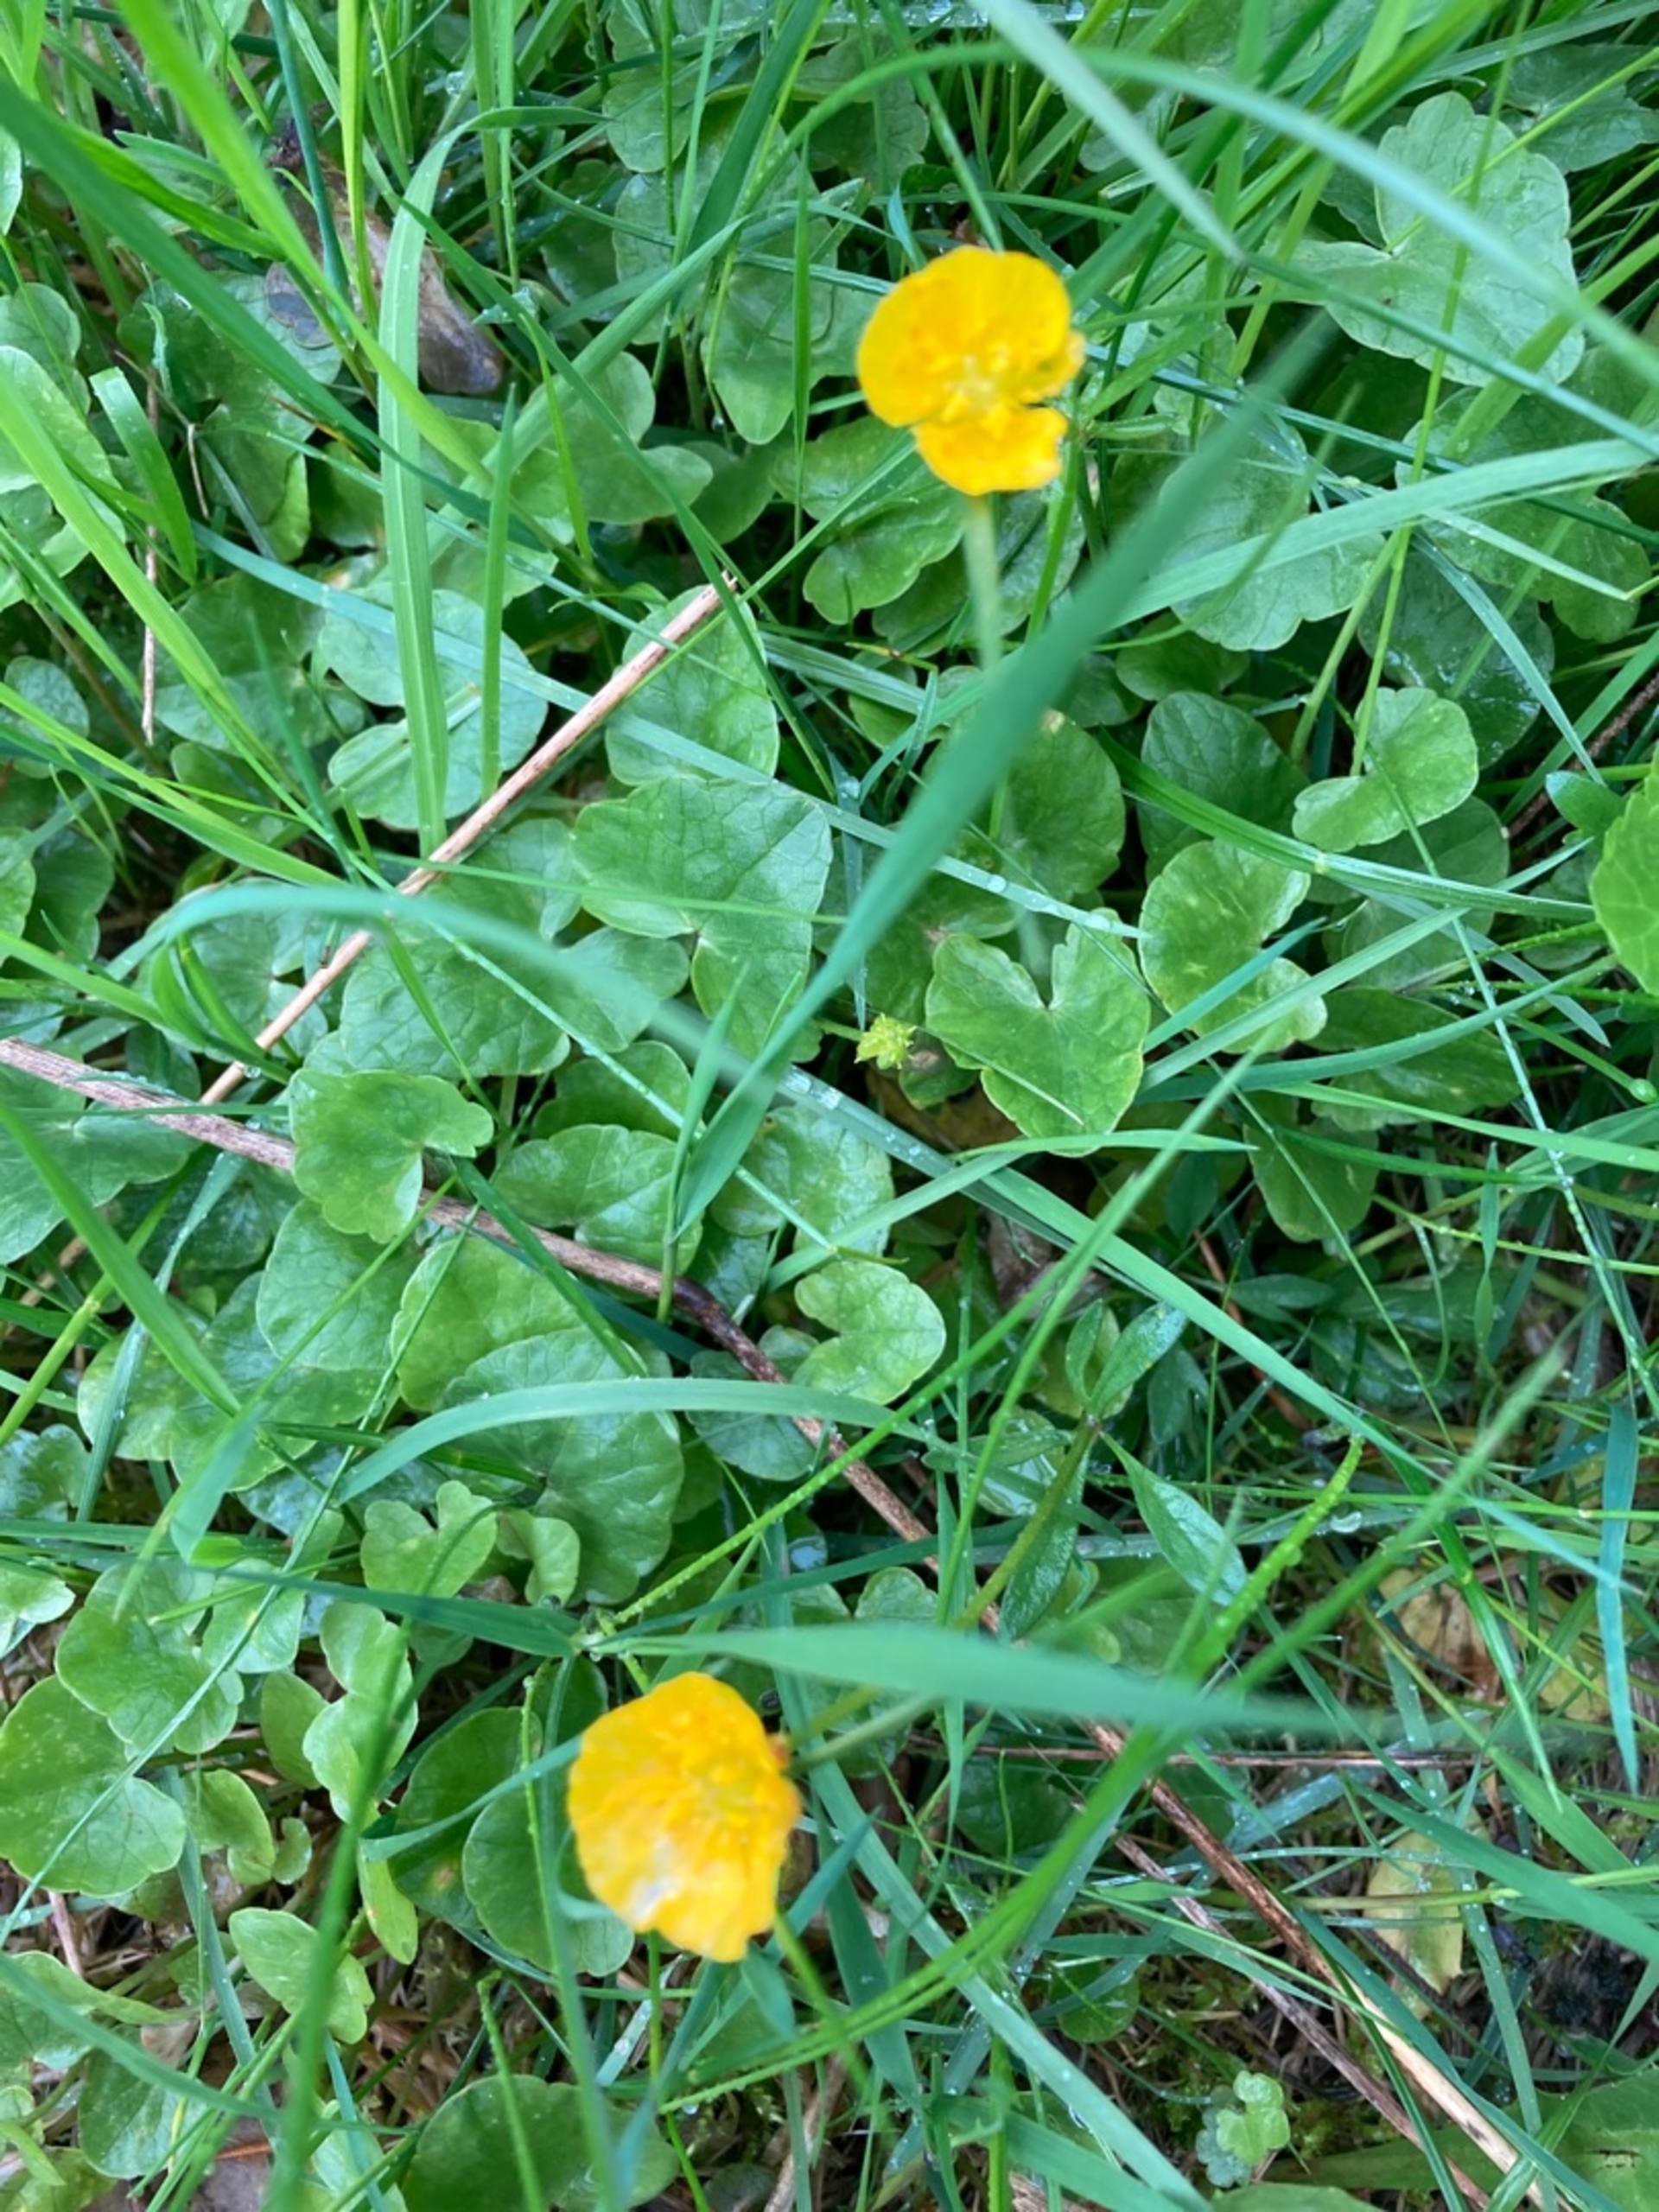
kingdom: Plantae
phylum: Tracheophyta
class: Magnoliopsida
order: Ranunculales
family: Ranunculaceae
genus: Ranunculus
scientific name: Ranunculus
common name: Ranunkelslægten
